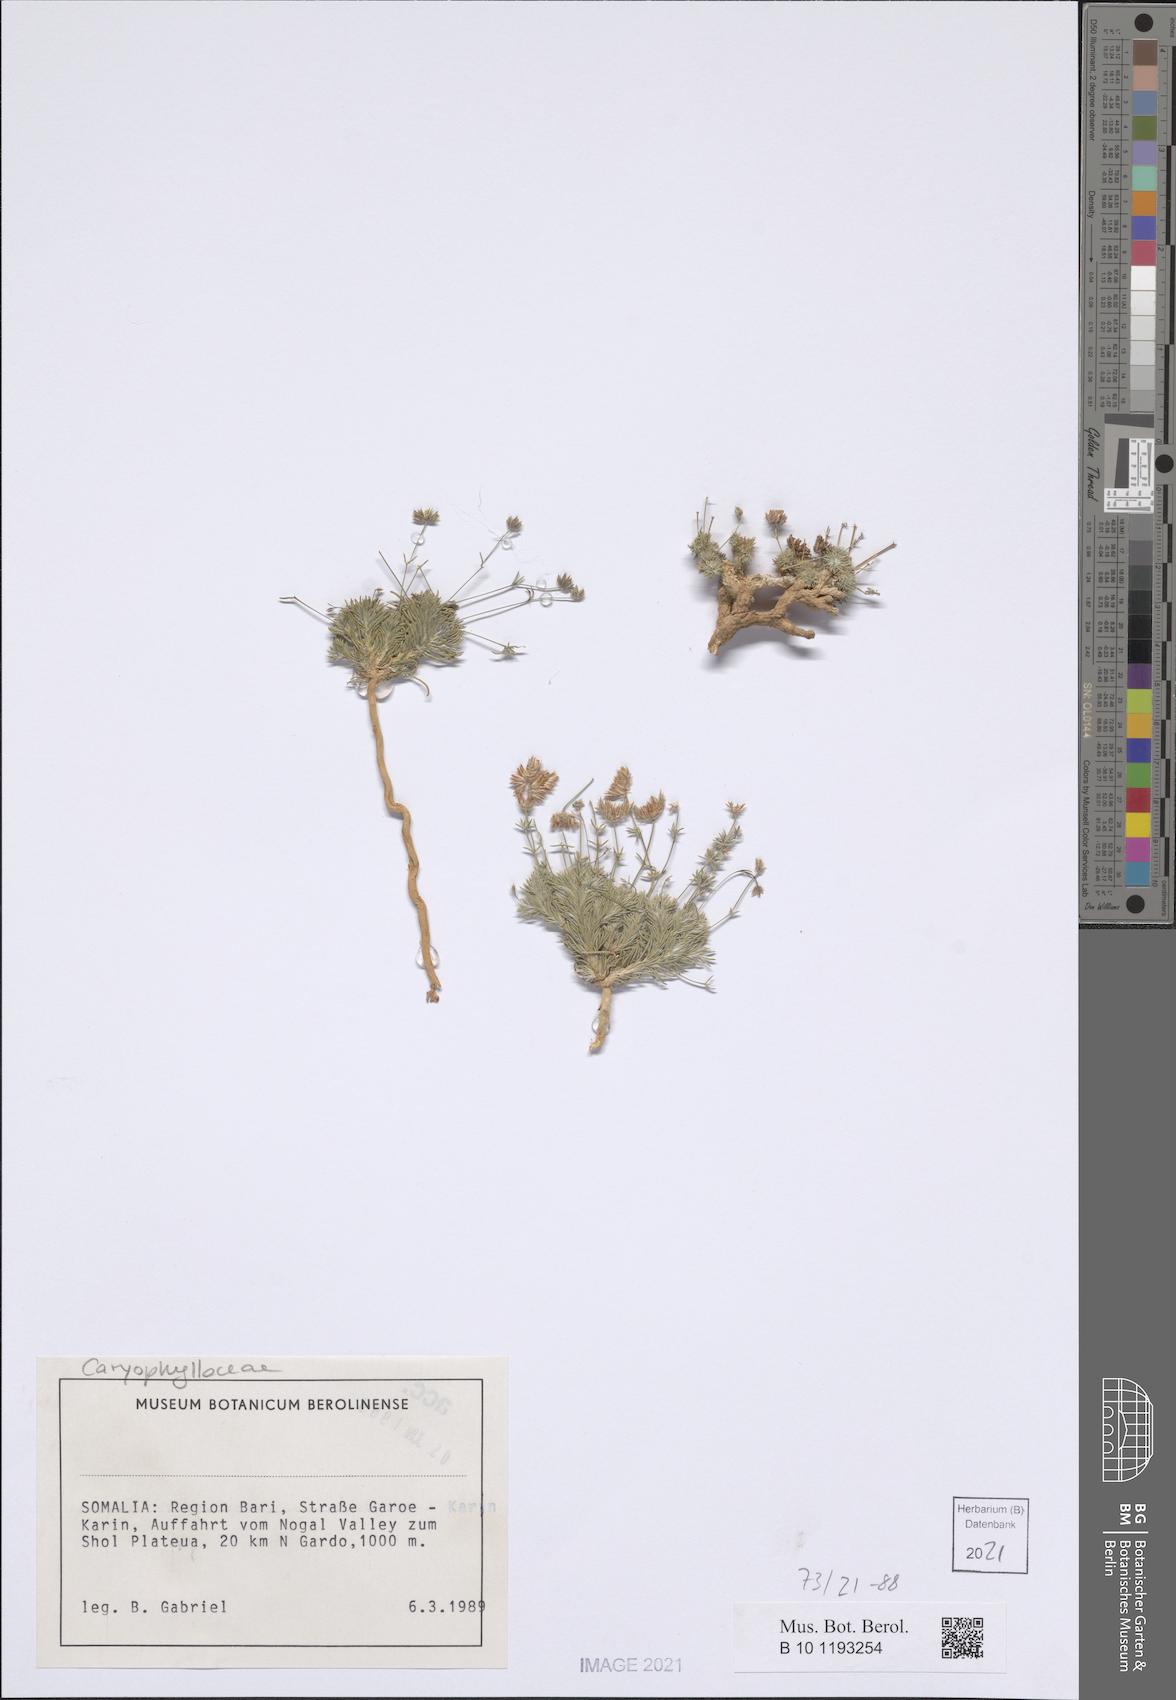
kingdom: Plantae
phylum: Tracheophyta
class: Magnoliopsida
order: Caryophyllales
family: Caryophyllaceae
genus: Polycarpaea
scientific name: Polycarpaea pulvinata
